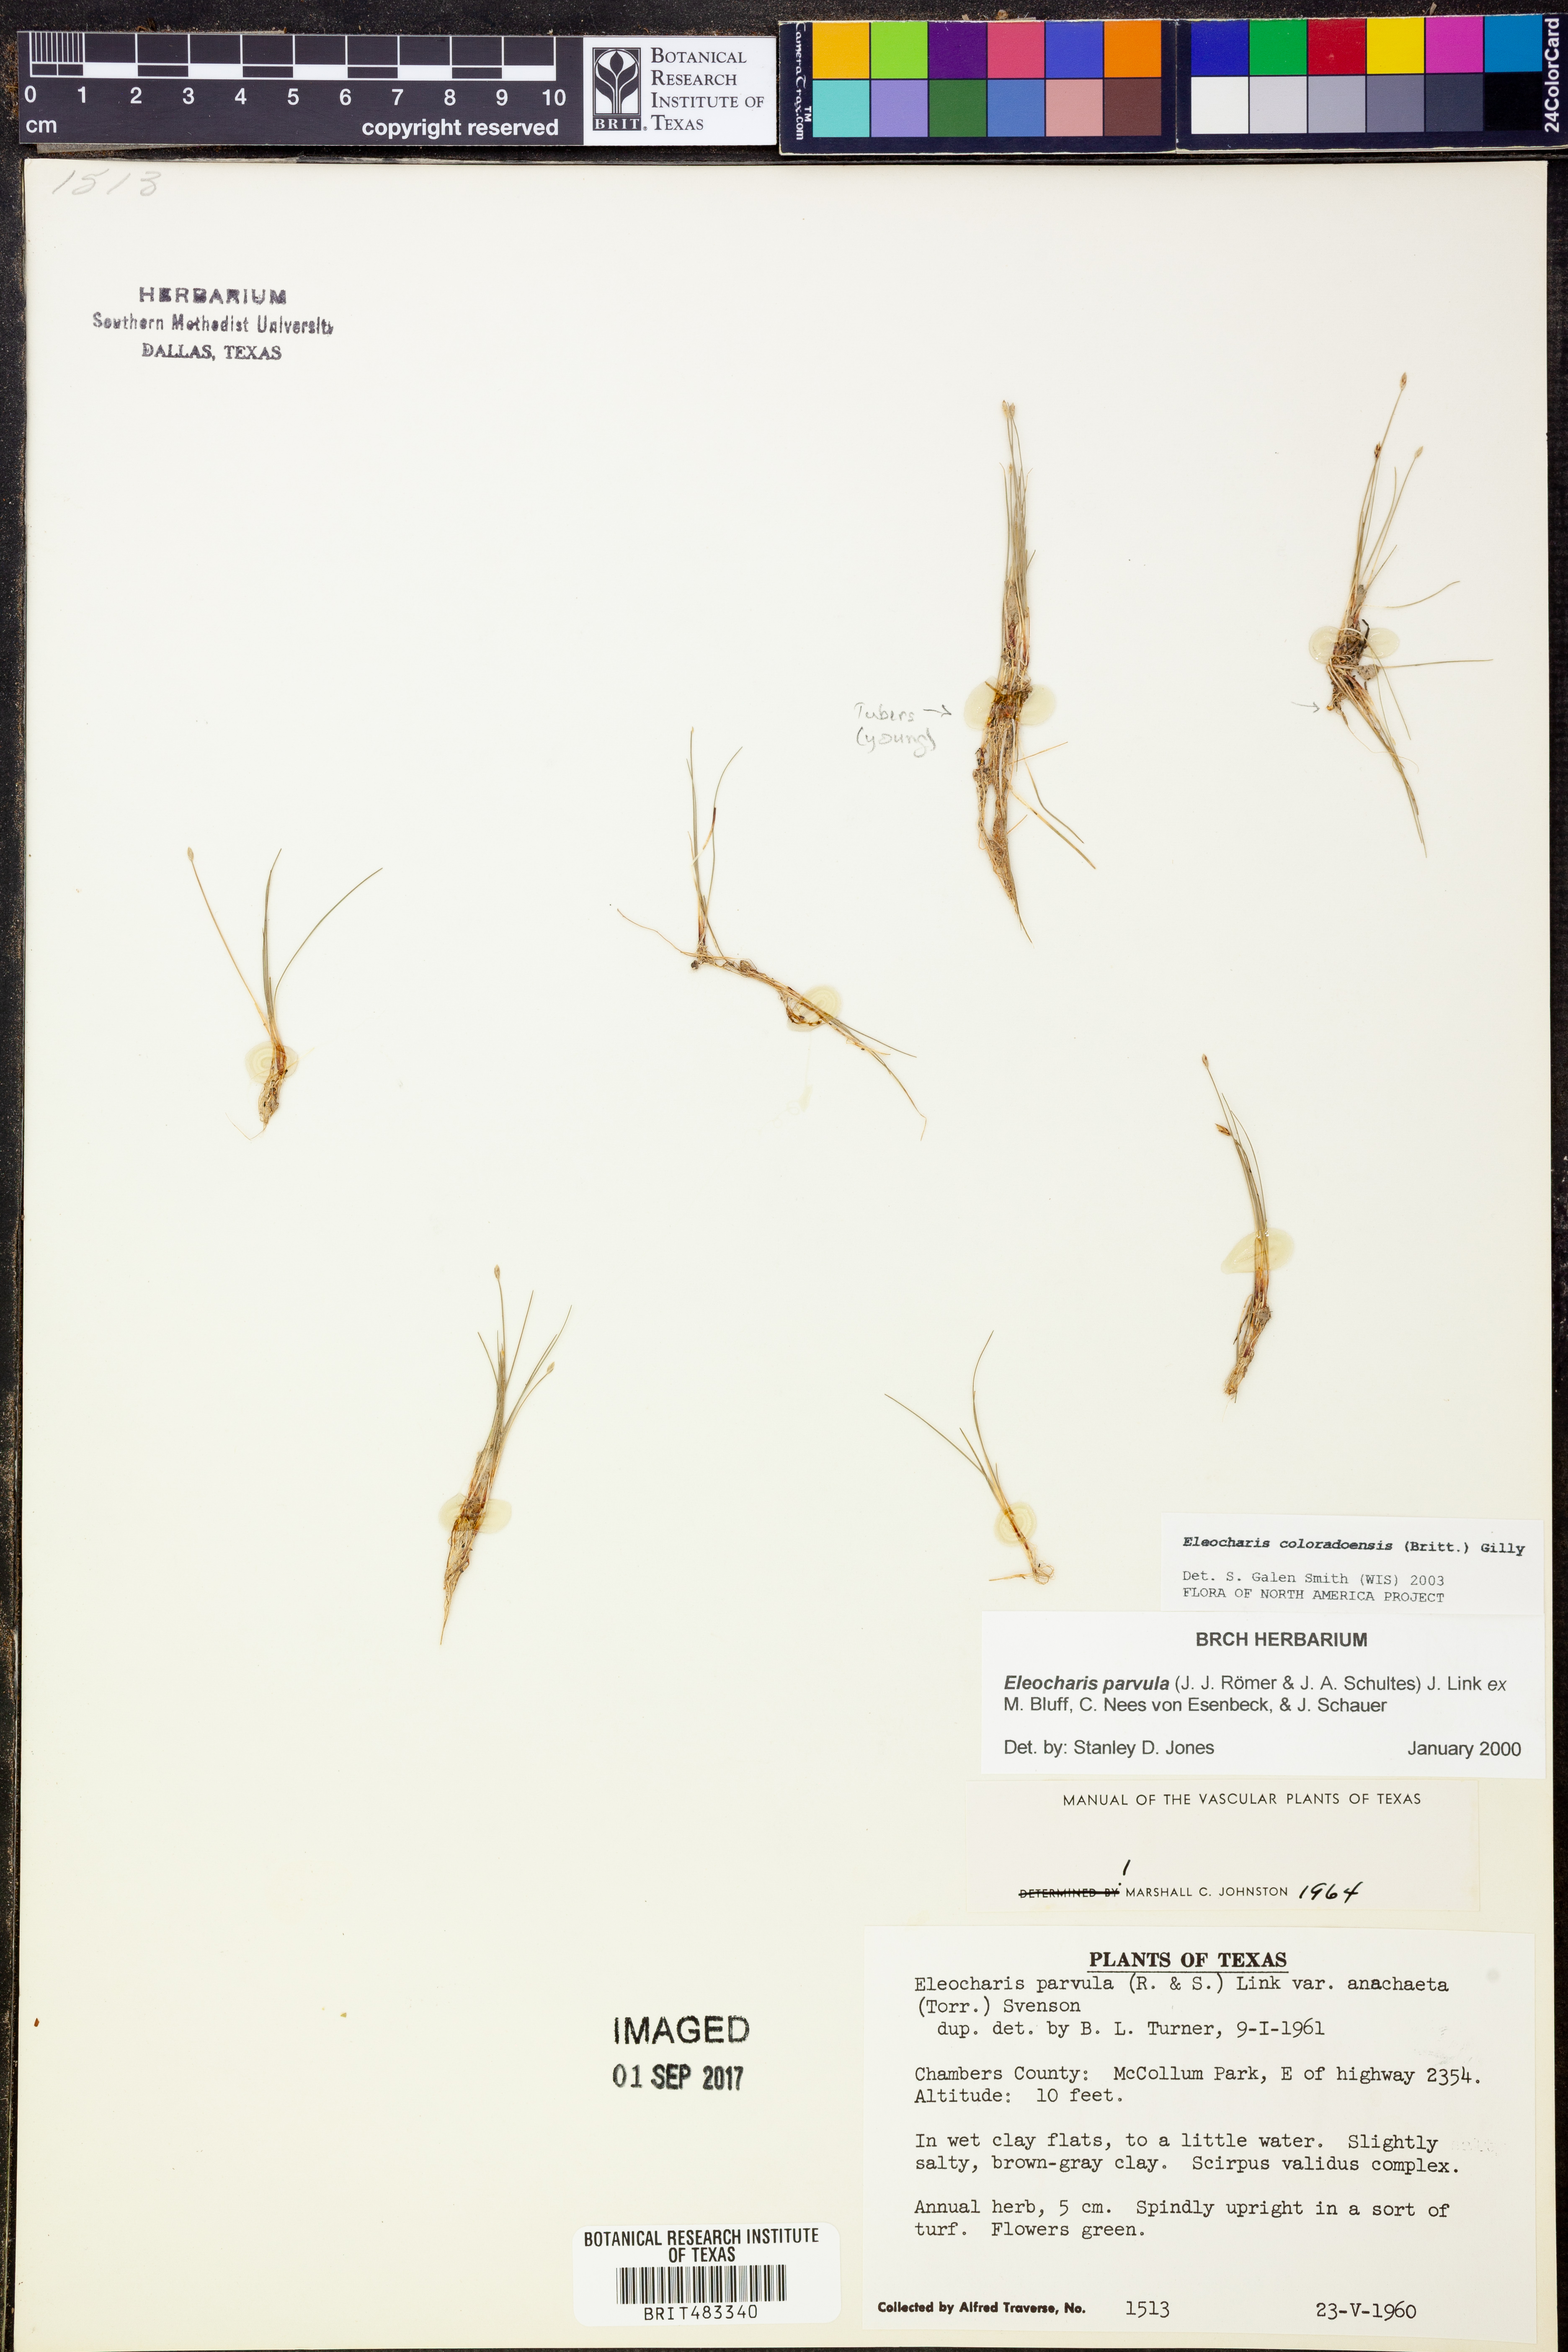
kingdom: Plantae
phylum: Tracheophyta
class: Liliopsida
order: Poales
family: Cyperaceae
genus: Eleocharis
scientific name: Eleocharis parvula
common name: Dwarf spike-rush
